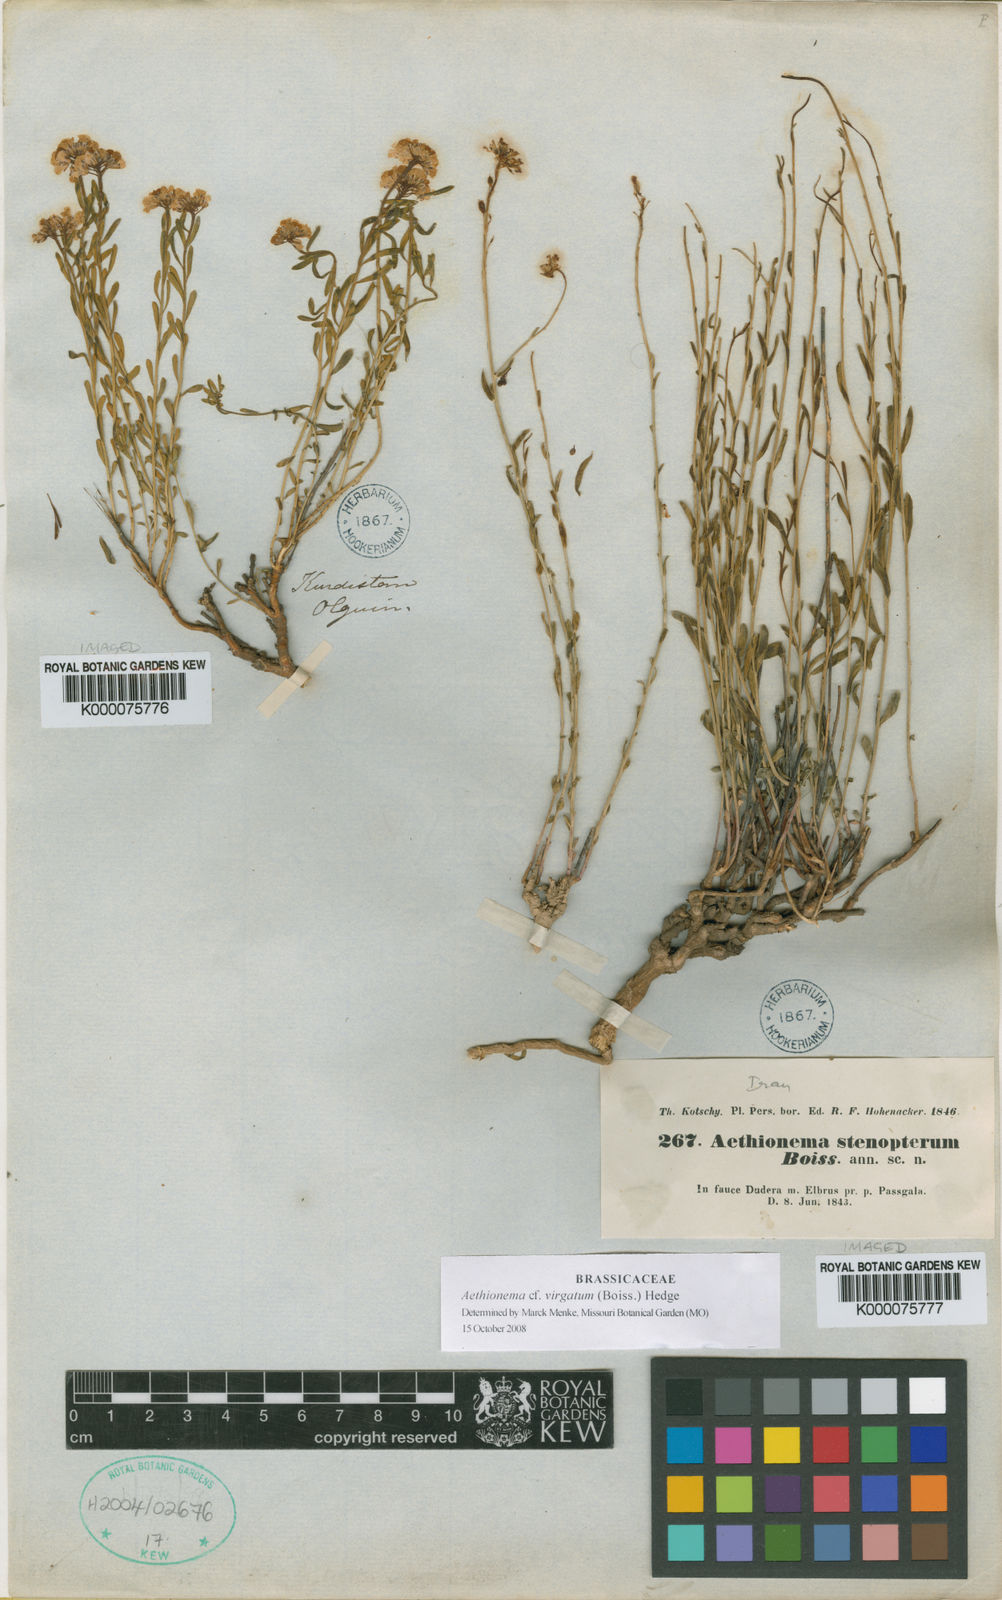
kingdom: Plantae
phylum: Tracheophyta
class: Magnoliopsida
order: Brassicales
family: Brassicaceae
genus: Aethionema
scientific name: Aethionema stenopterum
